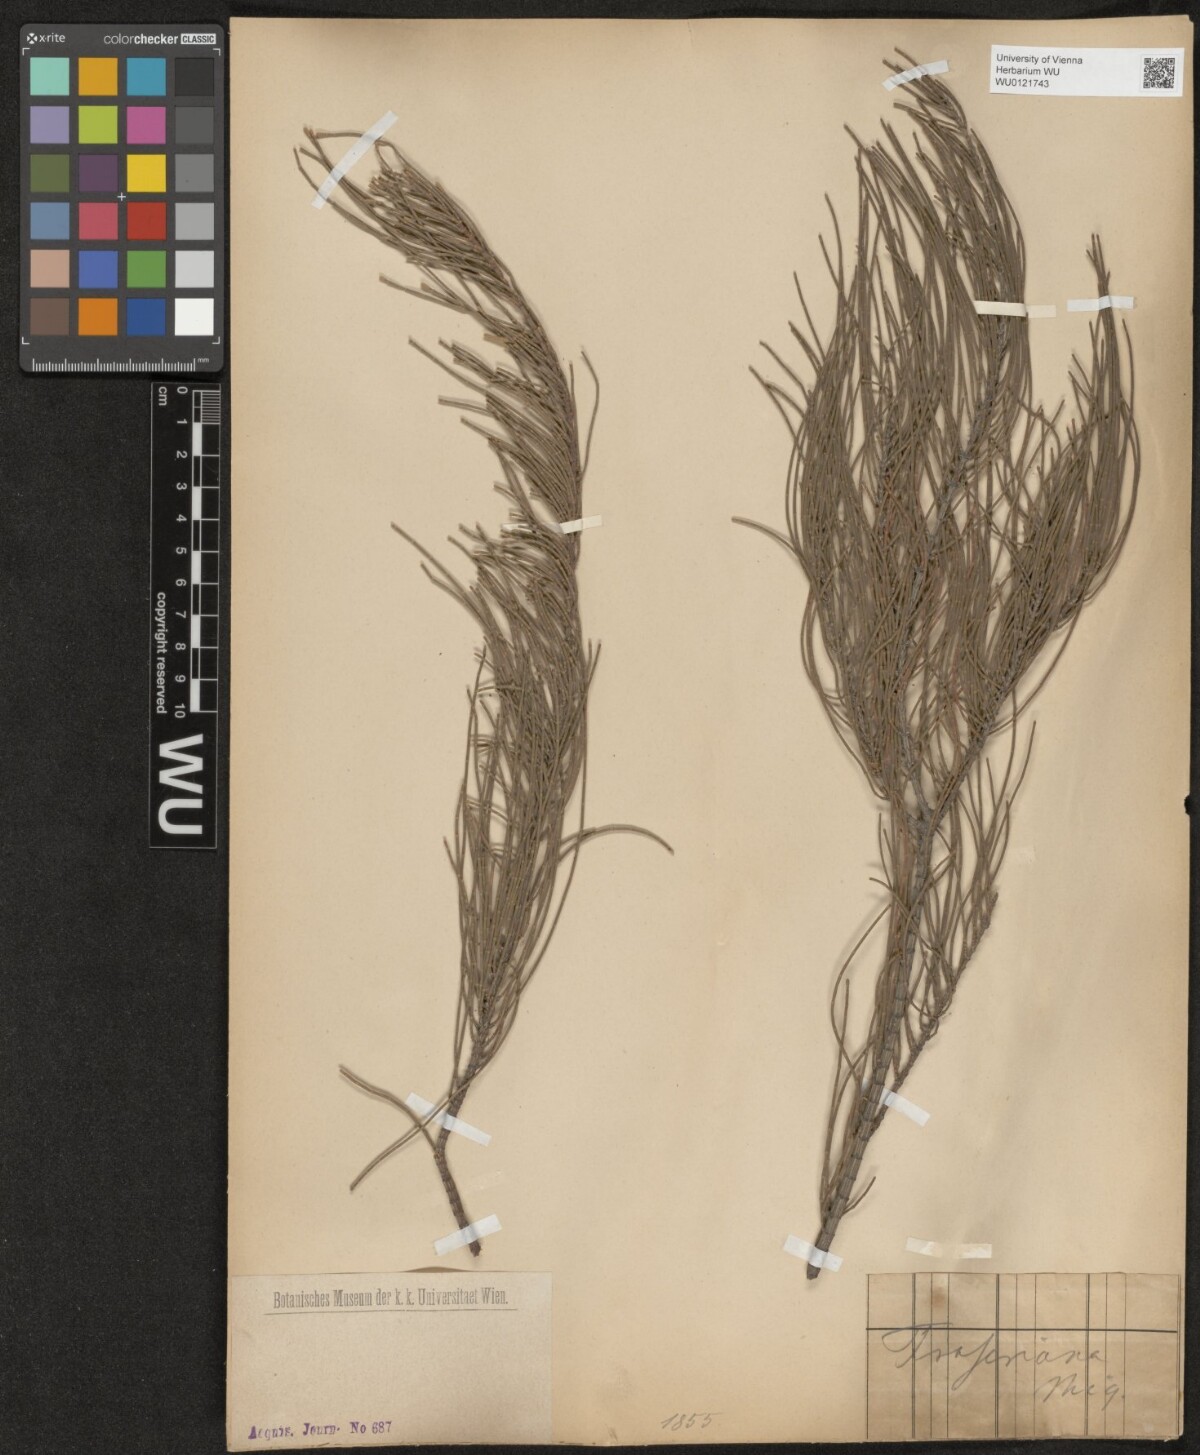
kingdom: Plantae
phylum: Tracheophyta
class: Magnoliopsida
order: Fagales
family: Casuarinaceae
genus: Casuarina
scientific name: Casuarina
